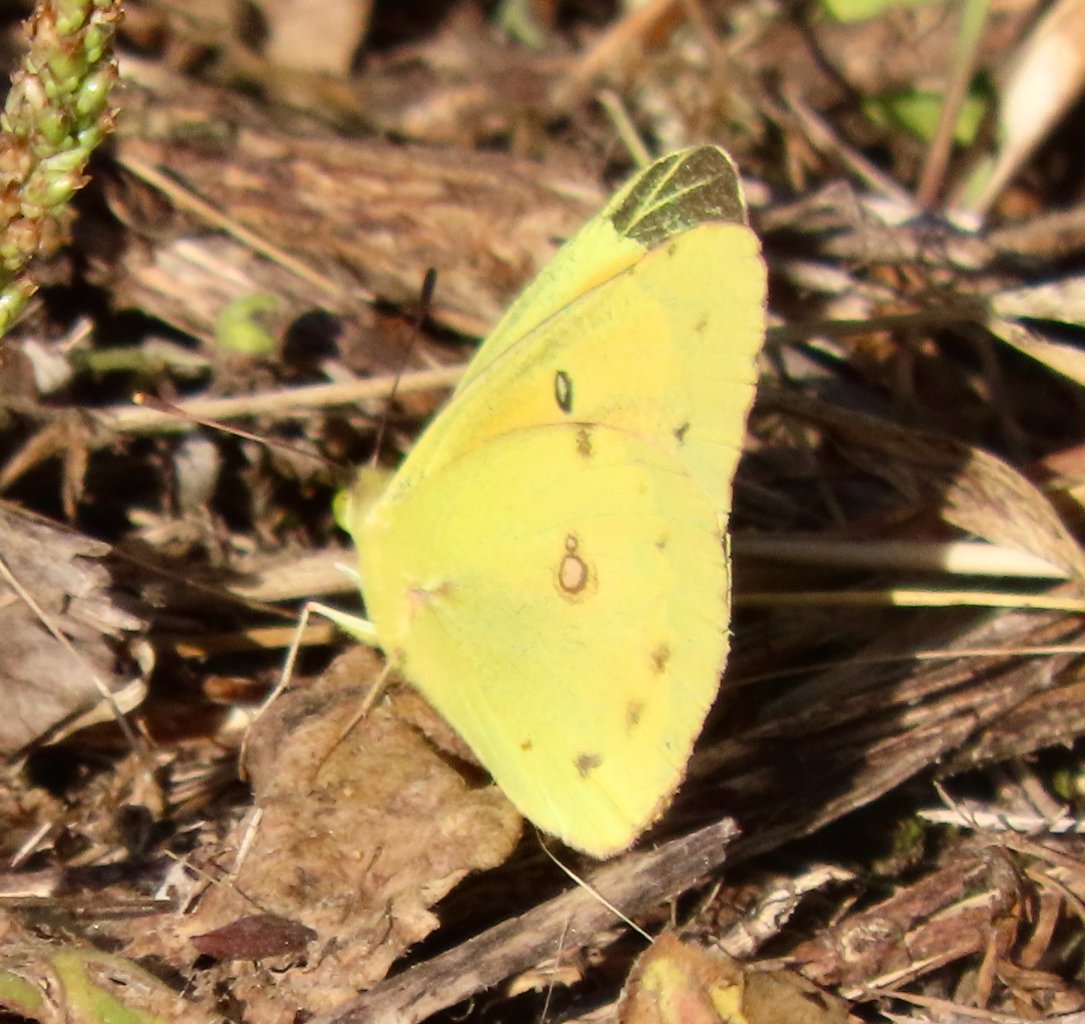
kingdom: Animalia
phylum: Arthropoda
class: Insecta
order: Lepidoptera
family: Pieridae
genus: Colias
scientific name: Colias eurytheme
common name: Orange Sulphur
